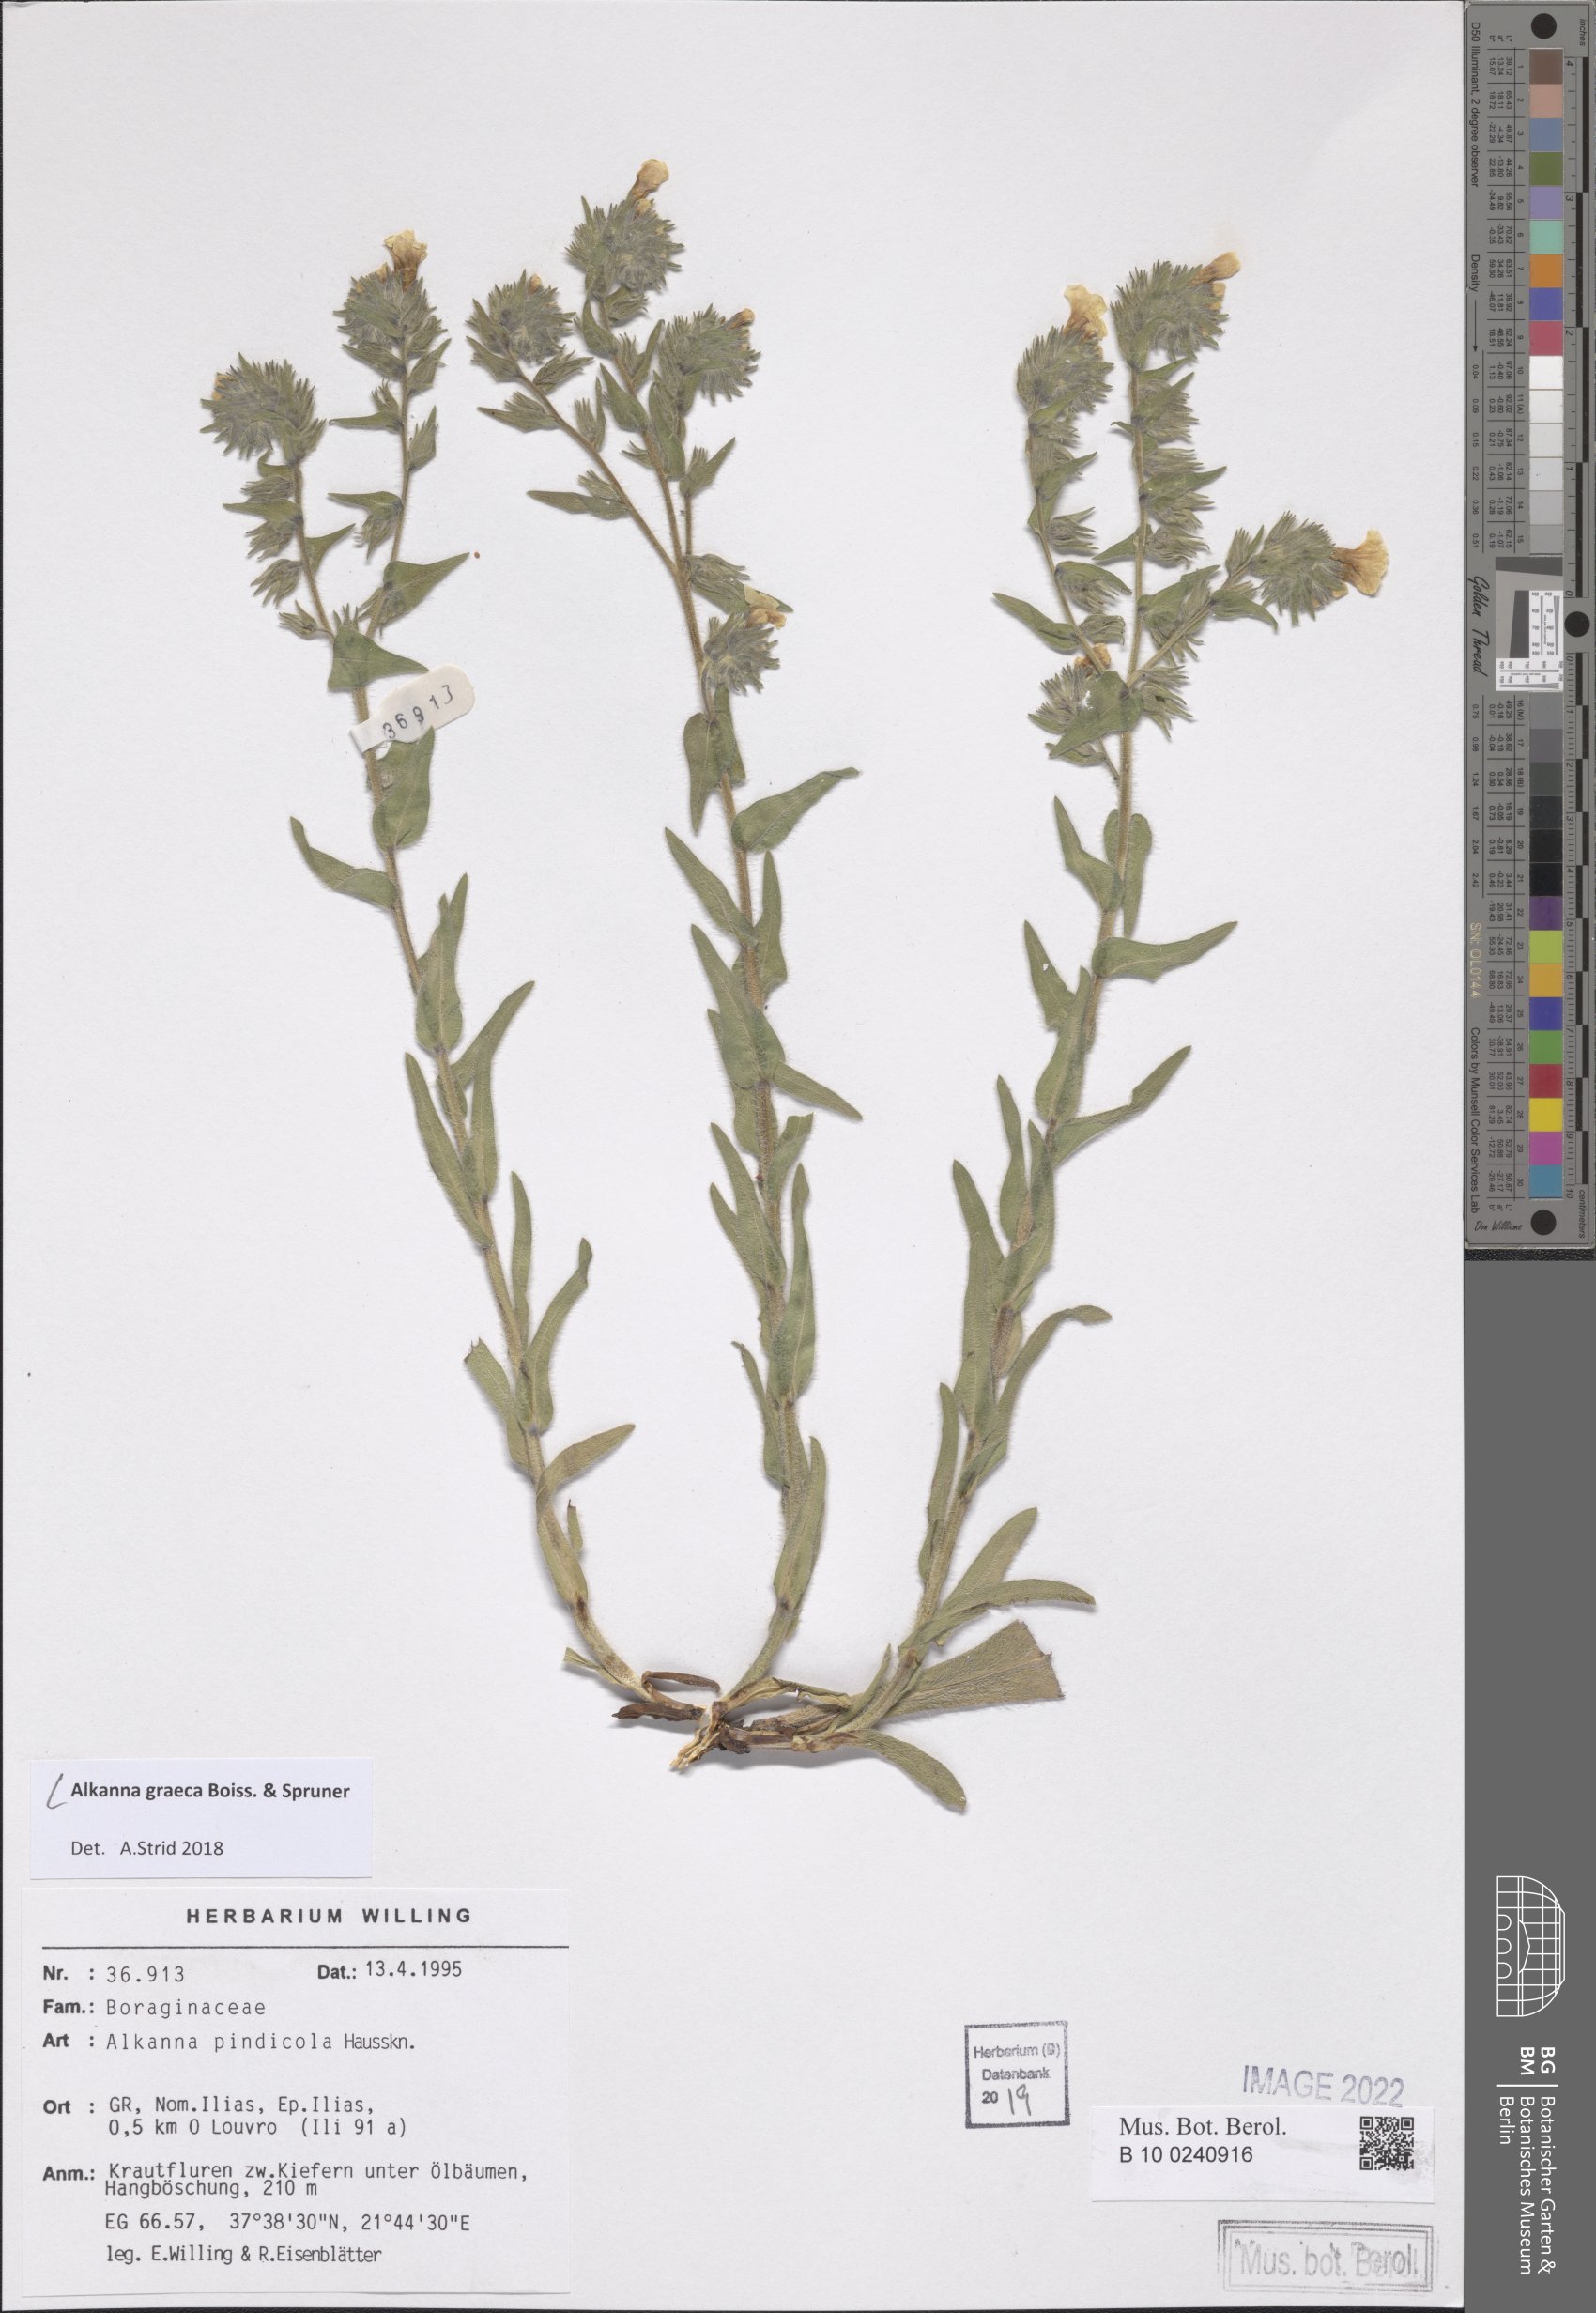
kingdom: Plantae
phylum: Tracheophyta
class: Magnoliopsida
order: Boraginales
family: Boraginaceae
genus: Alkanna
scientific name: Alkanna graeca
